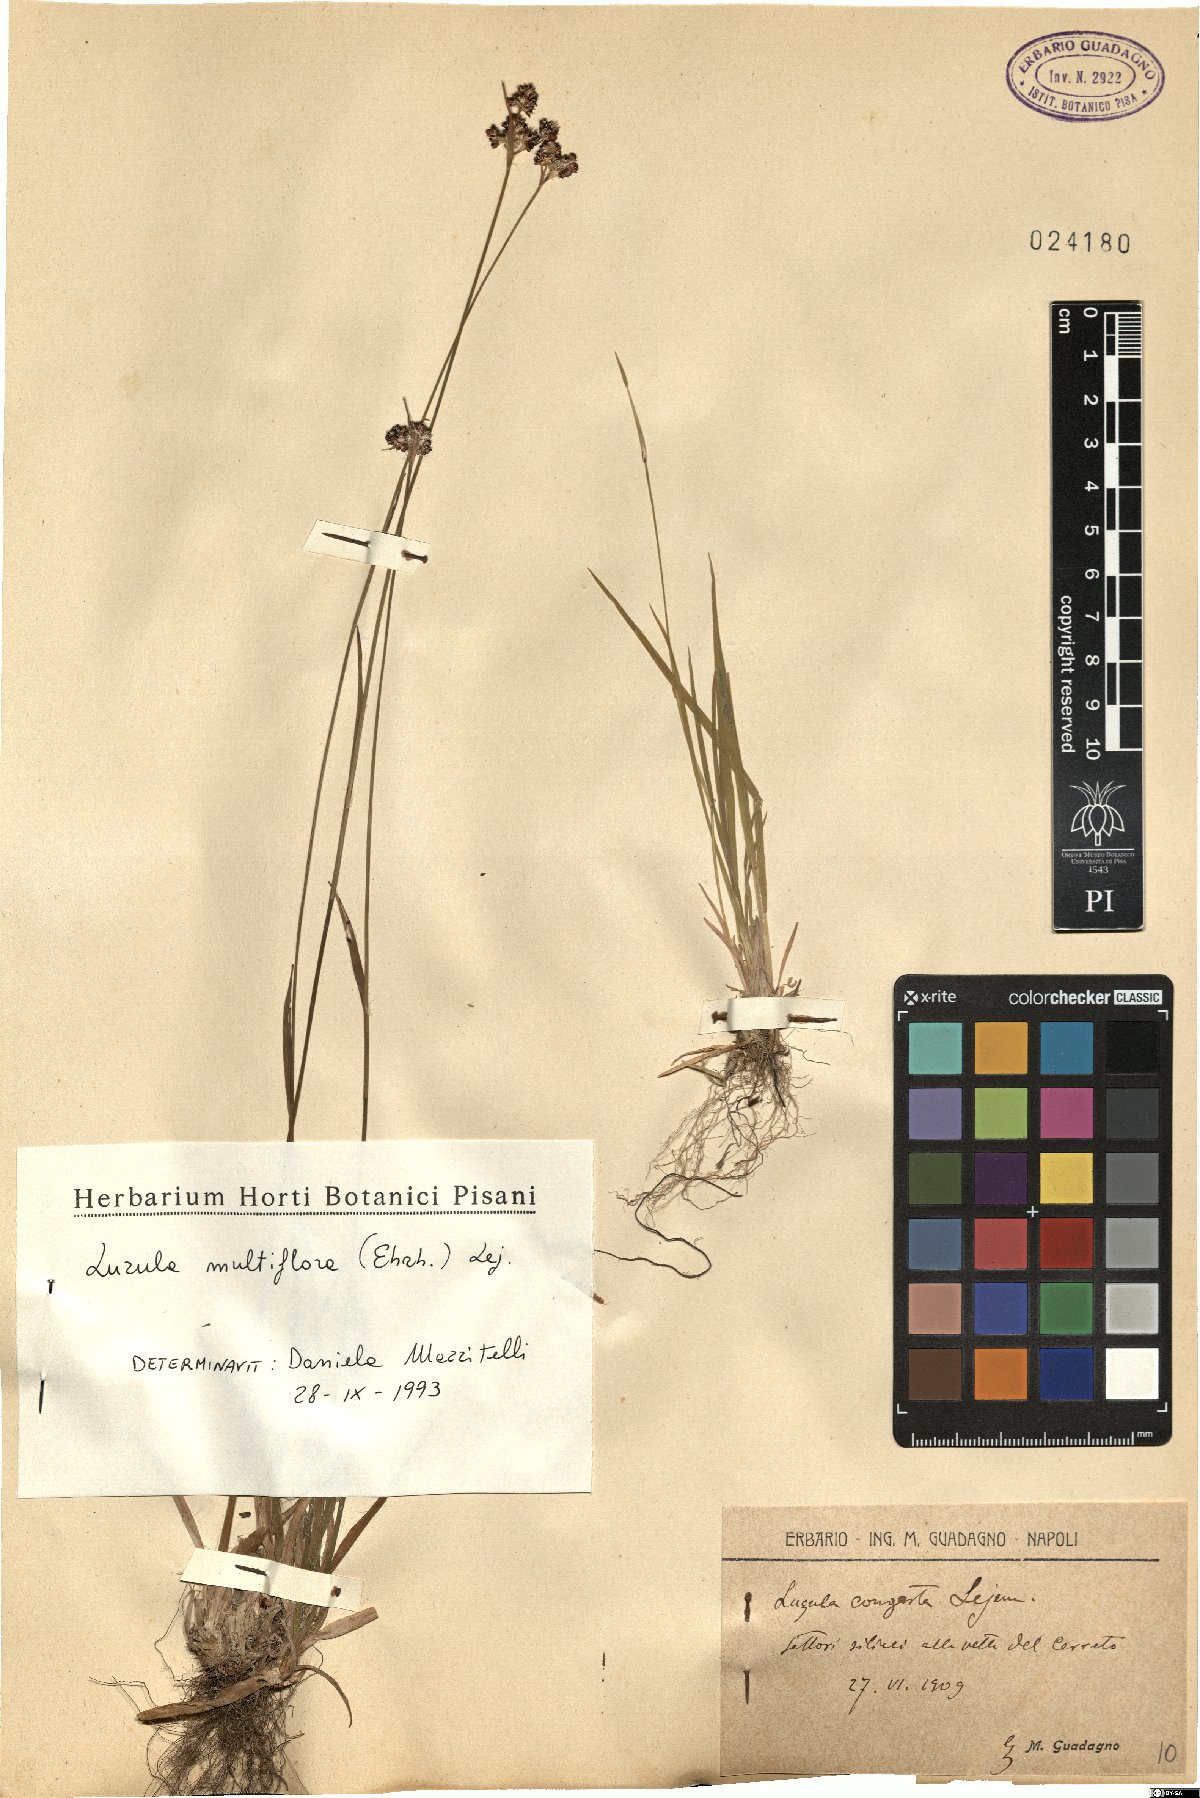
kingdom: Plantae
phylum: Tracheophyta
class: Liliopsida
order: Poales
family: Juncaceae
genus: Luzula
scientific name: Luzula multiflora
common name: Heath wood-rush
